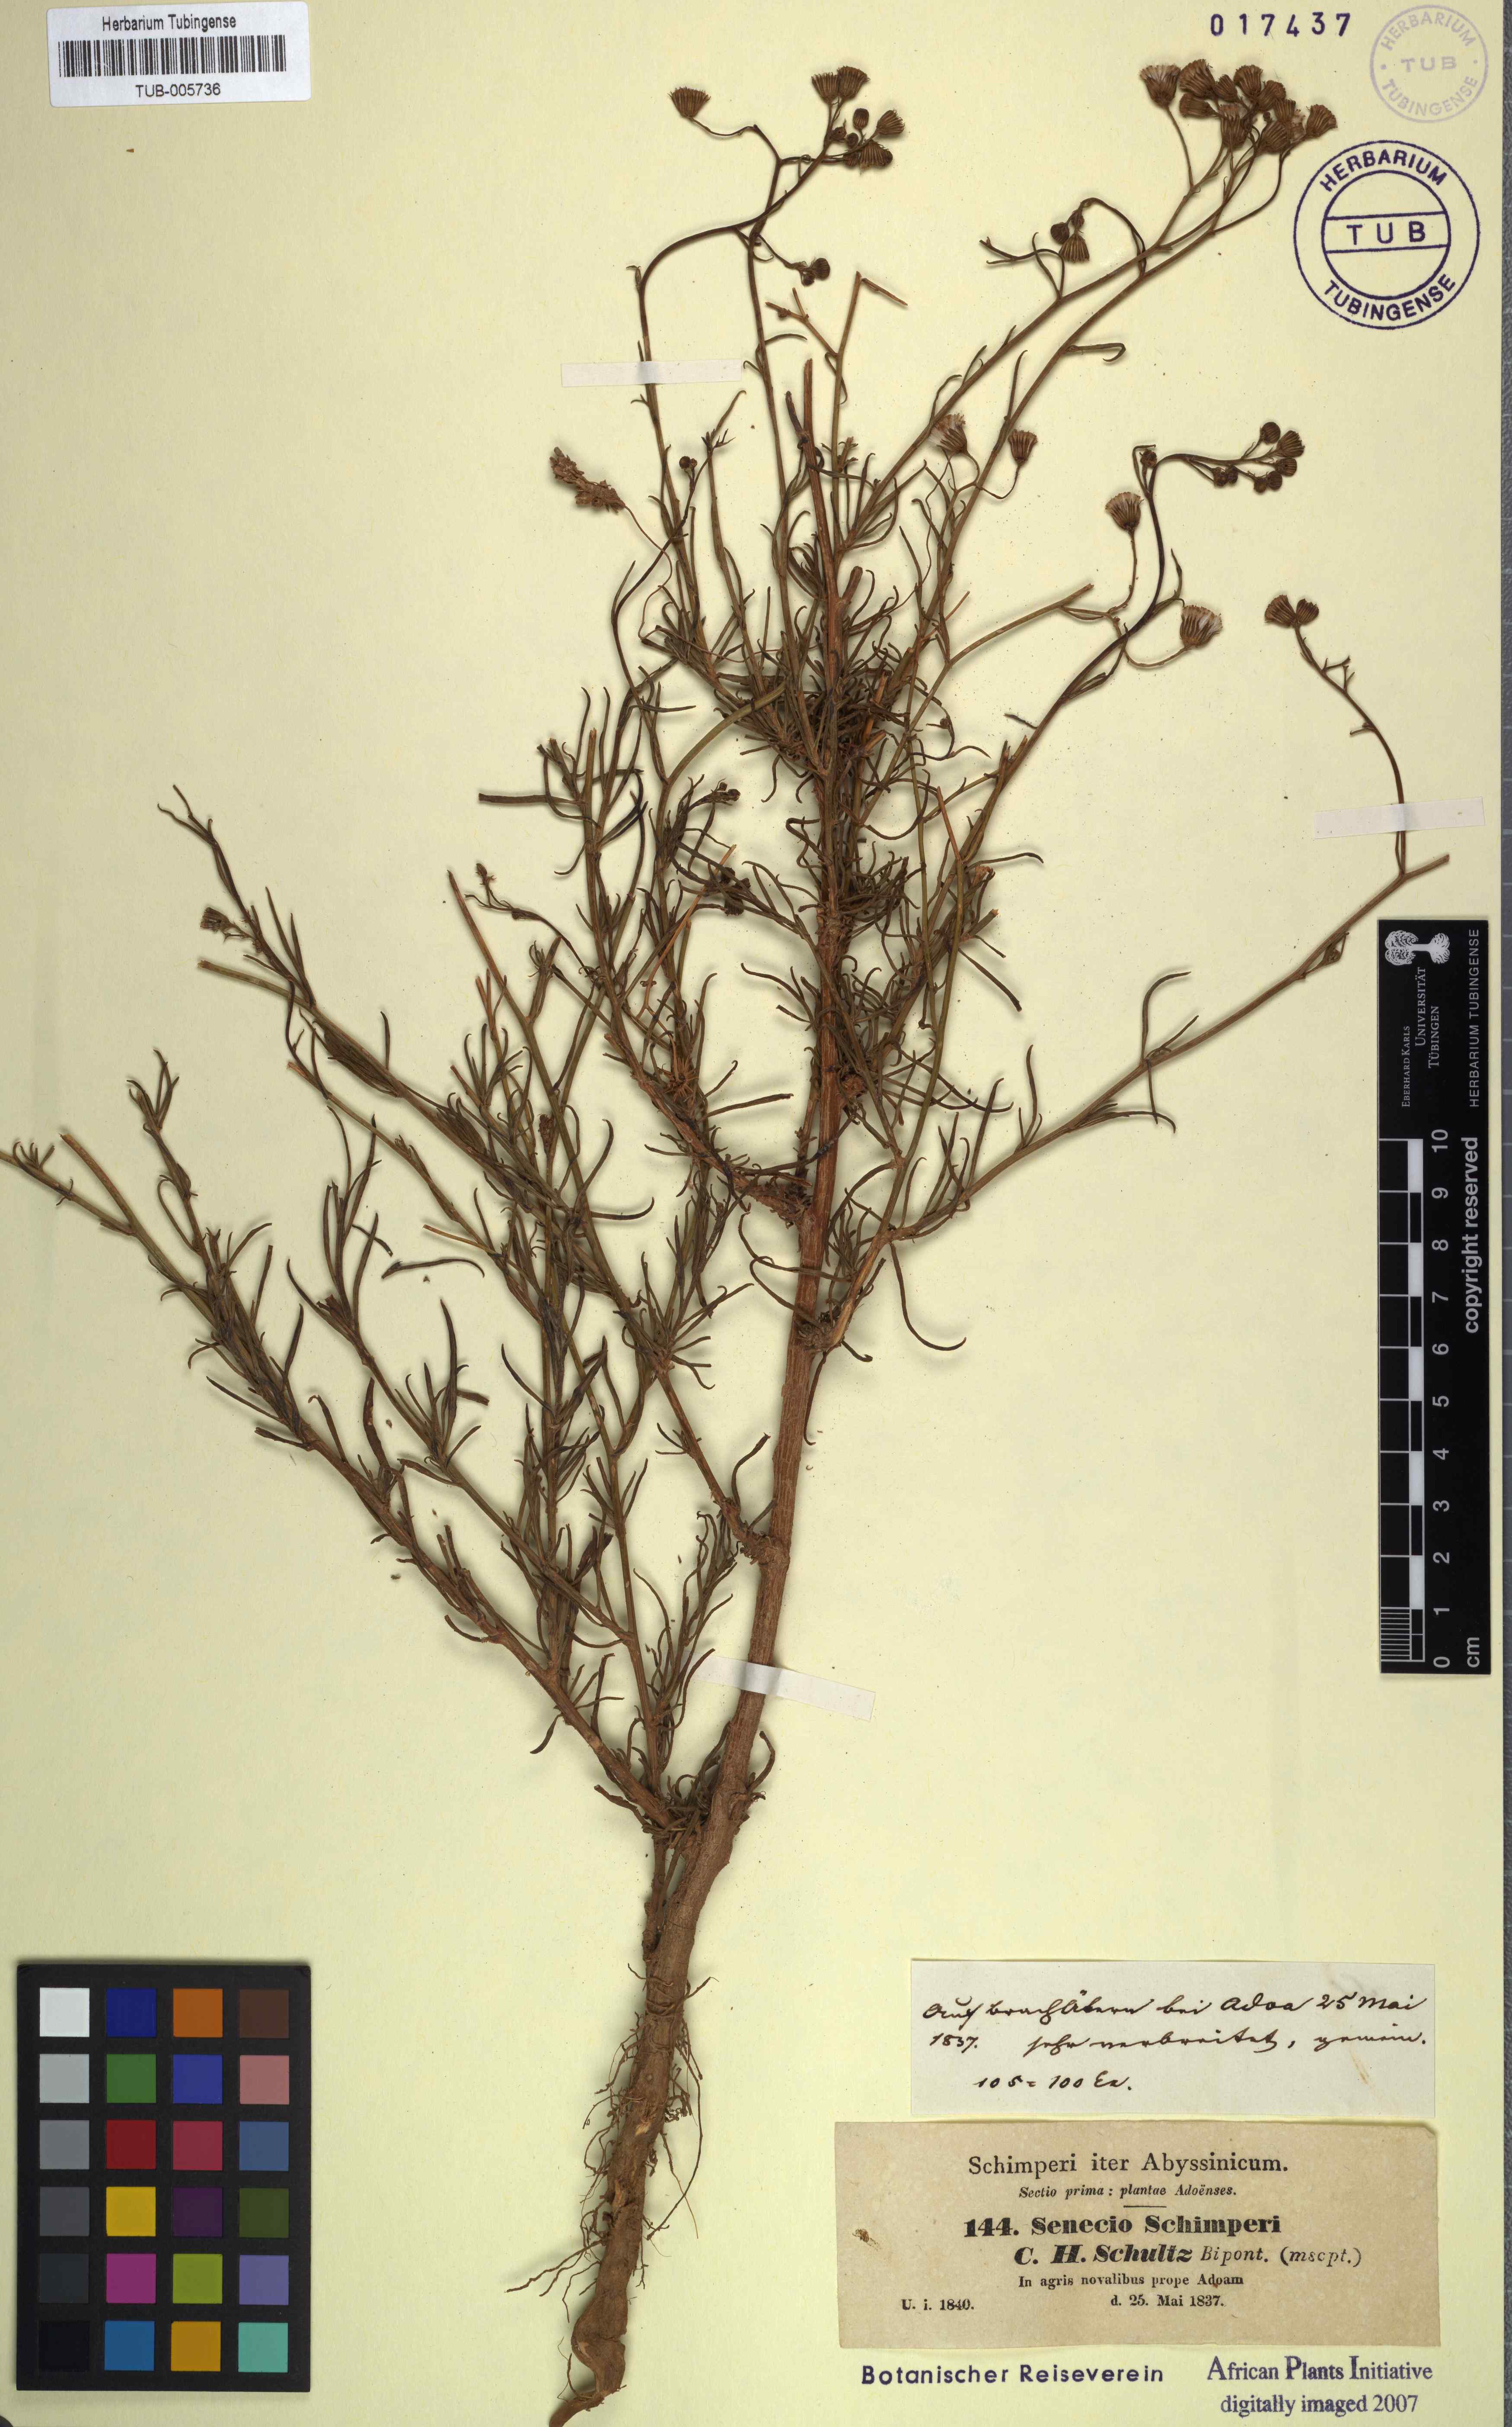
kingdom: Plantae
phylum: Tracheophyta
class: Magnoliopsida
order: Asterales
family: Asteraceae
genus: Senecio
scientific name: Senecio schimperi
